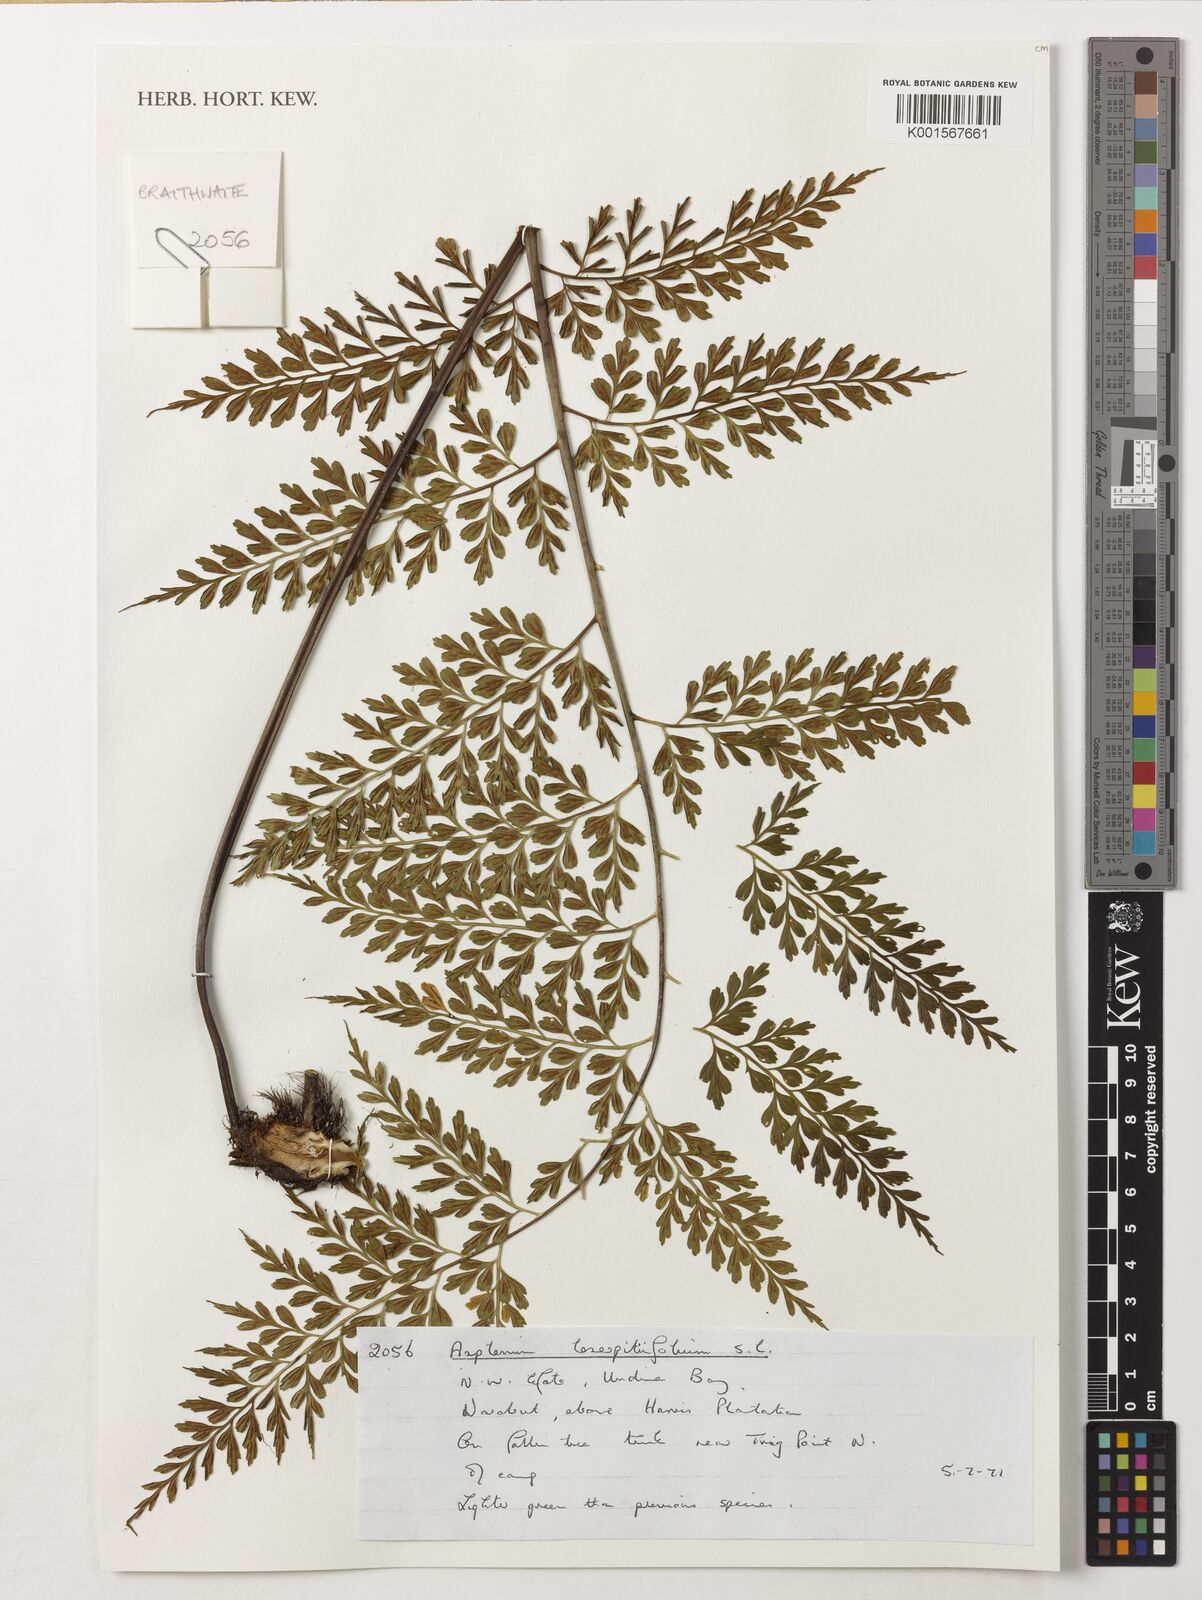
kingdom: Plantae
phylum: Tracheophyta
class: Polypodiopsida
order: Polypodiales
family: Aspleniaceae
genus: Asplenium
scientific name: Asplenium laserpitiifolium
